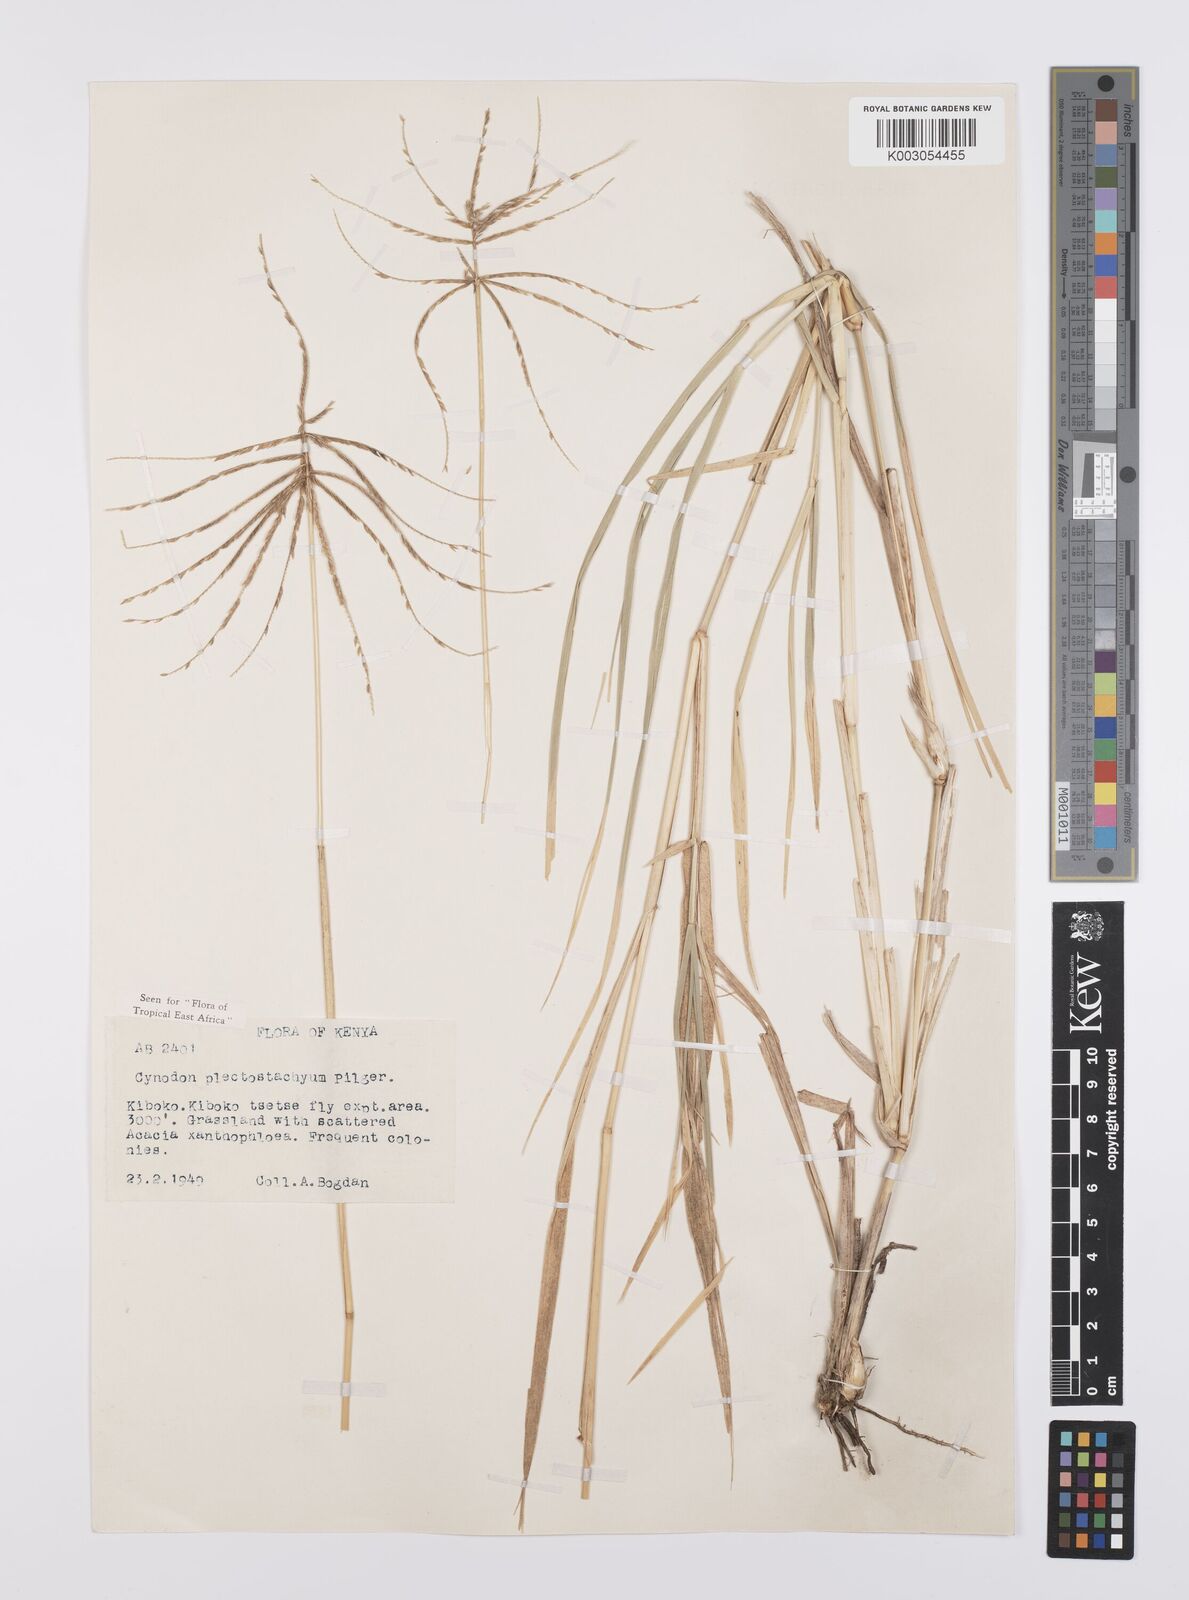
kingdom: Plantae
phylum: Tracheophyta
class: Liliopsida
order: Poales
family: Poaceae
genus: Cynodon
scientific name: Cynodon plectostachyus
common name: Stargrass
